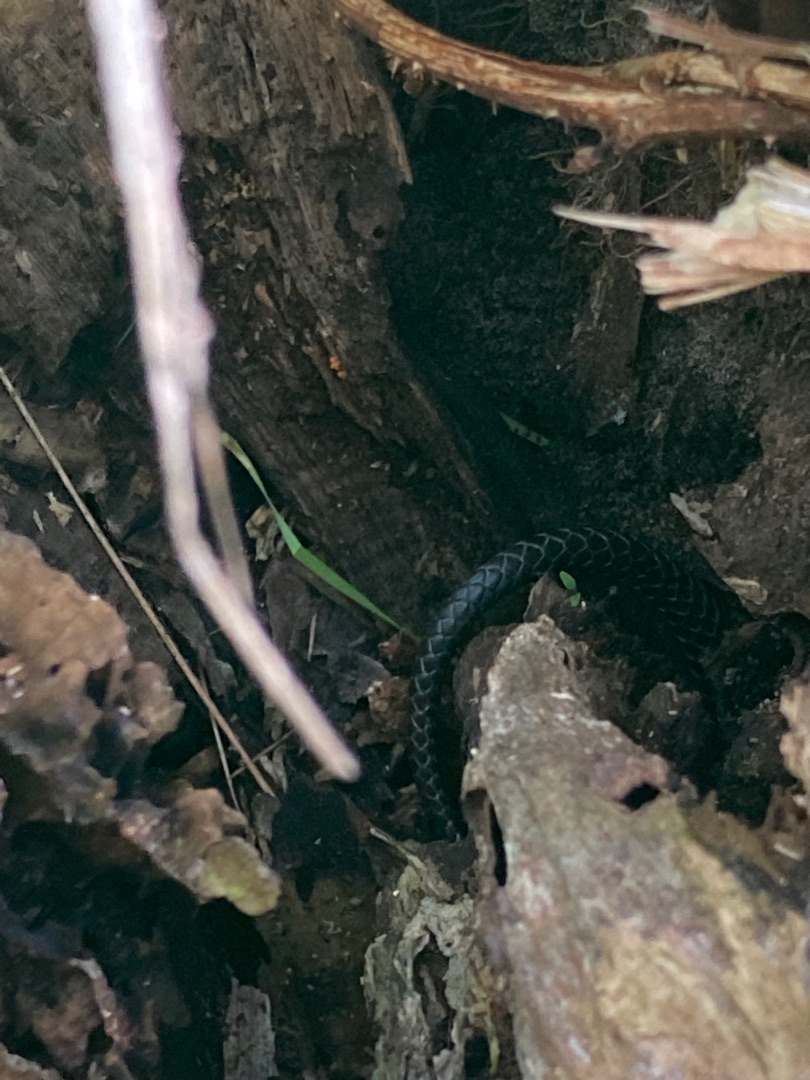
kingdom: Animalia
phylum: Chordata
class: Squamata
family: Colubridae
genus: Natrix
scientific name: Natrix natrix
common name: Snog
